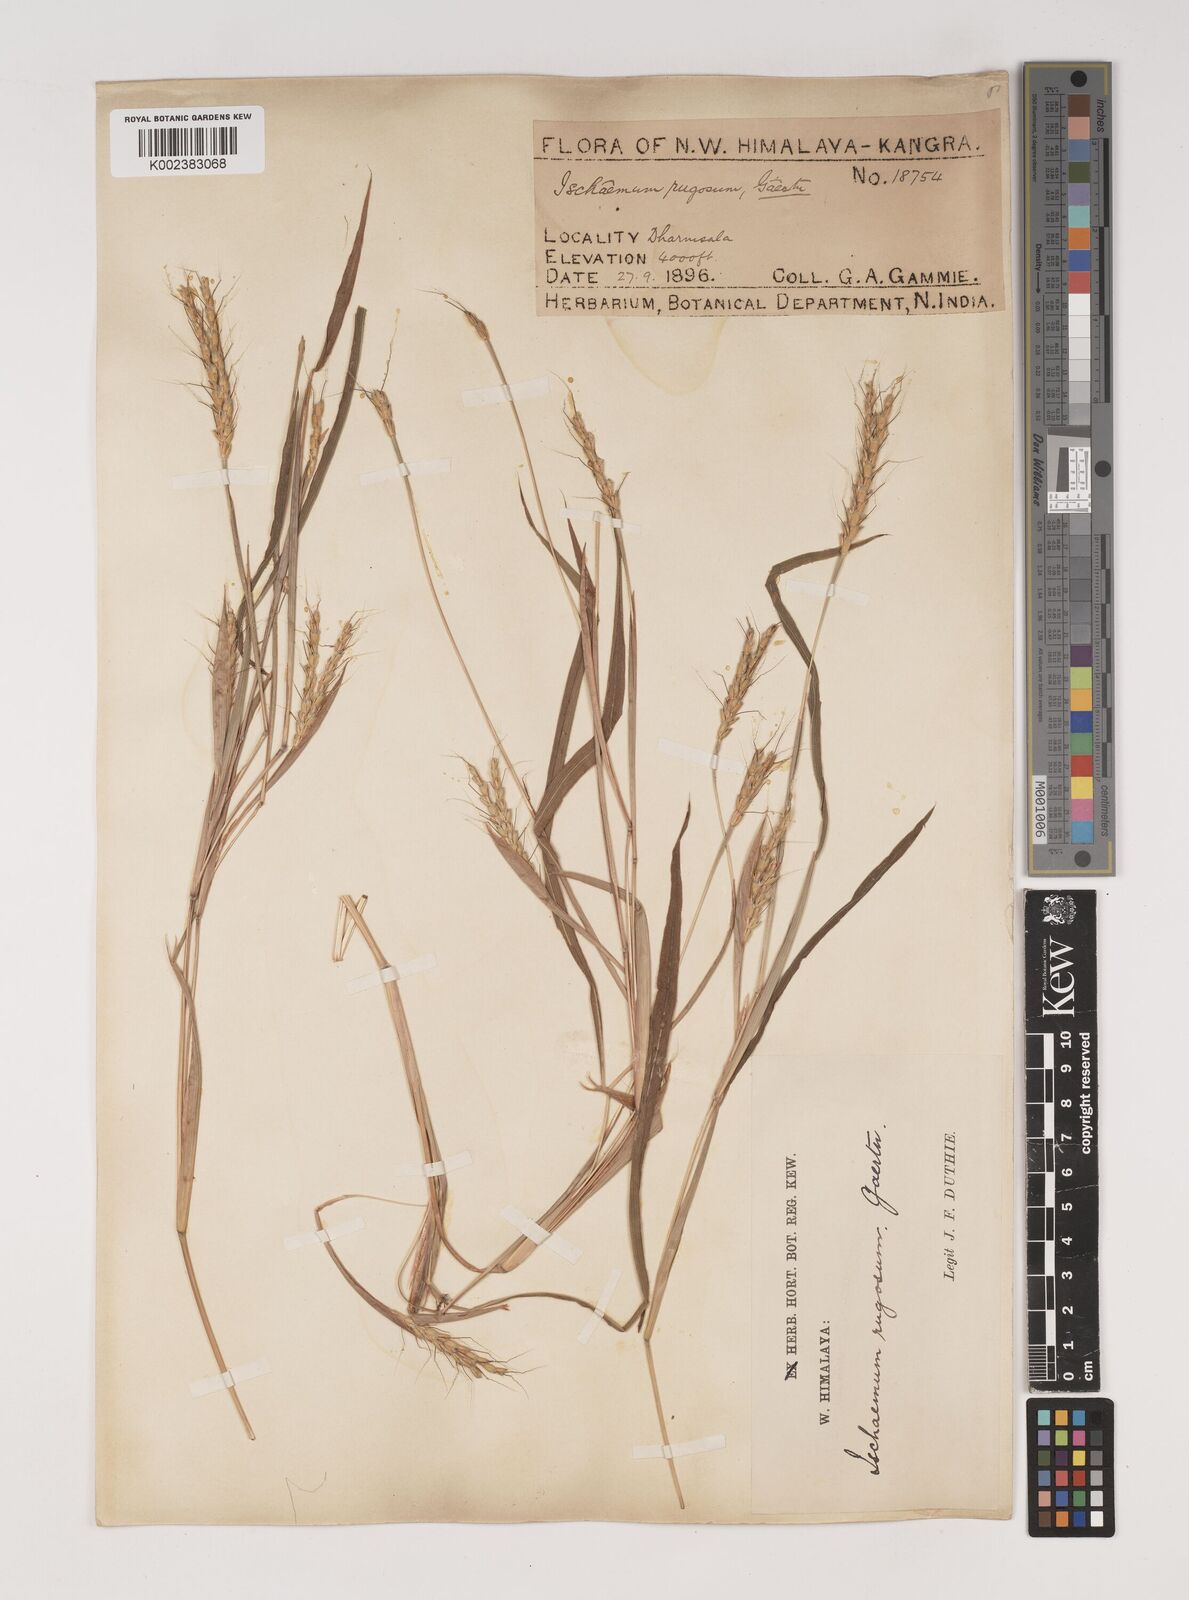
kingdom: Plantae
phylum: Tracheophyta
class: Liliopsida
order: Poales
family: Poaceae
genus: Ischaemum
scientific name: Ischaemum rugosum
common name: Saramatta grass
